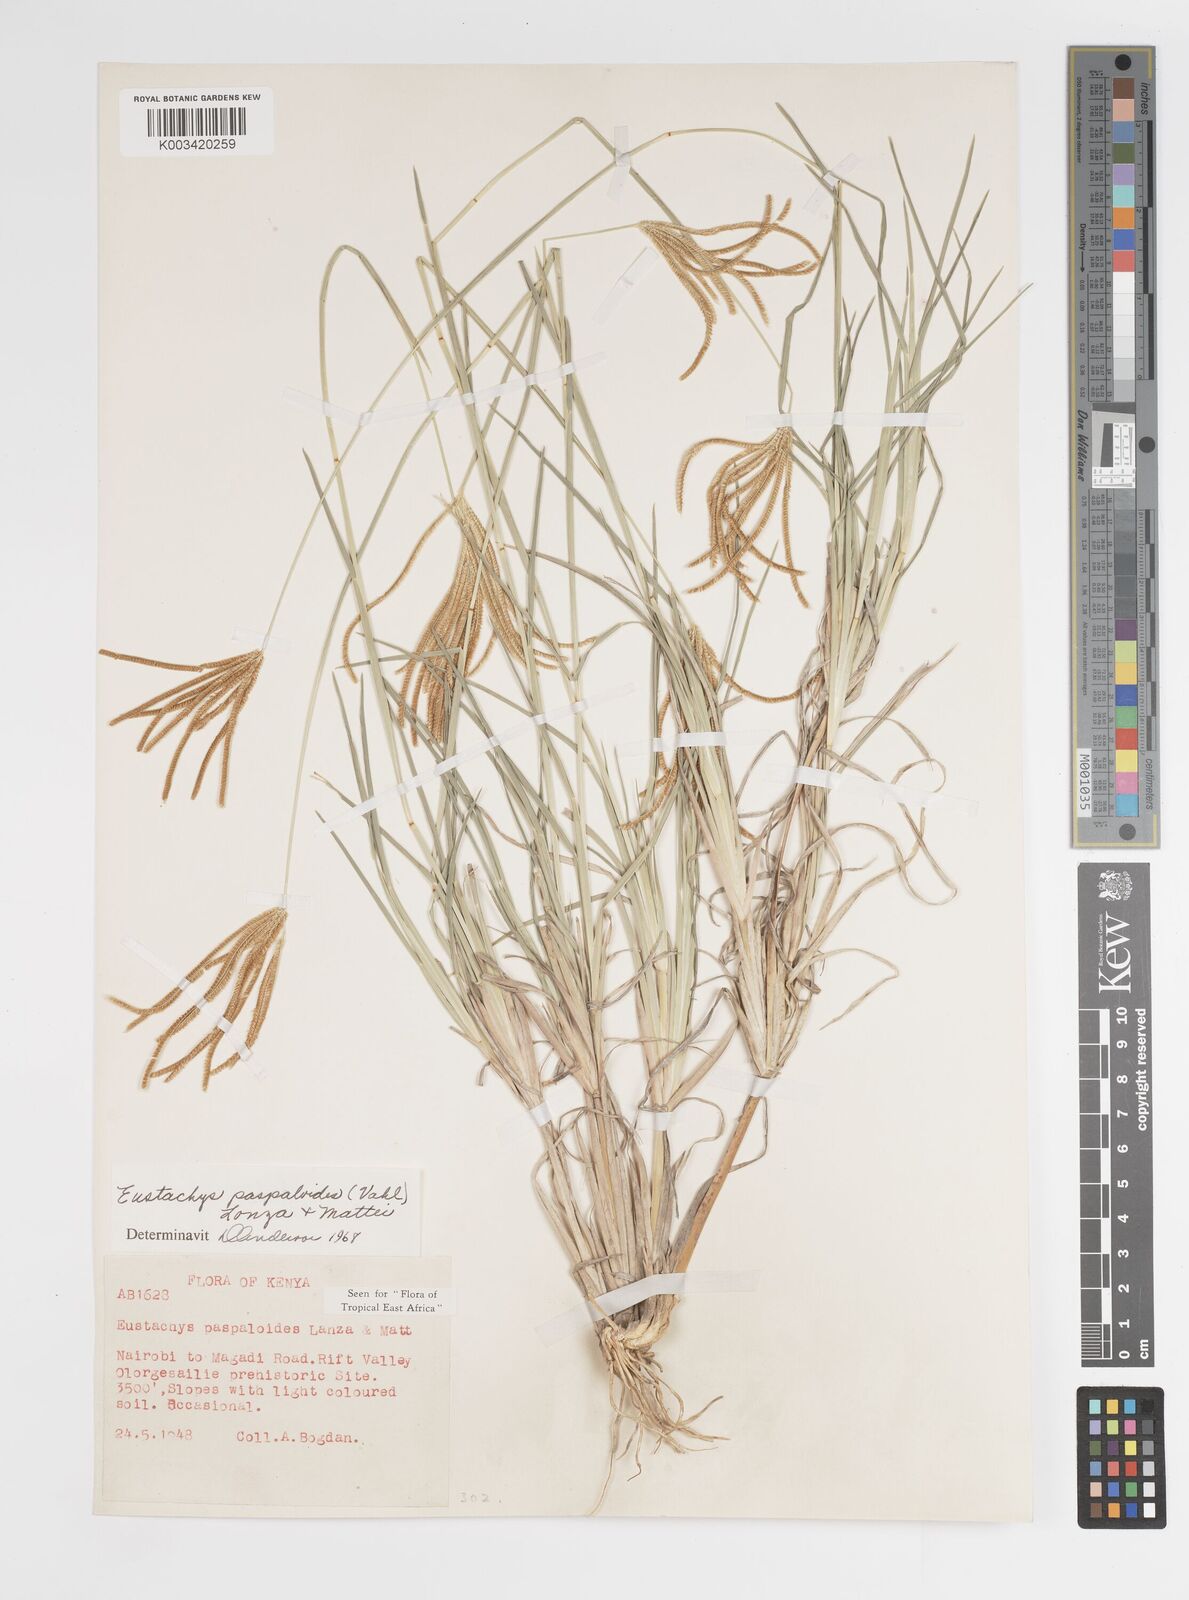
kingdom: Plantae
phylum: Tracheophyta
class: Liliopsida
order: Poales
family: Poaceae
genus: Eustachys
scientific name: Eustachys paspaloides
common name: Caribbean fingergrass
